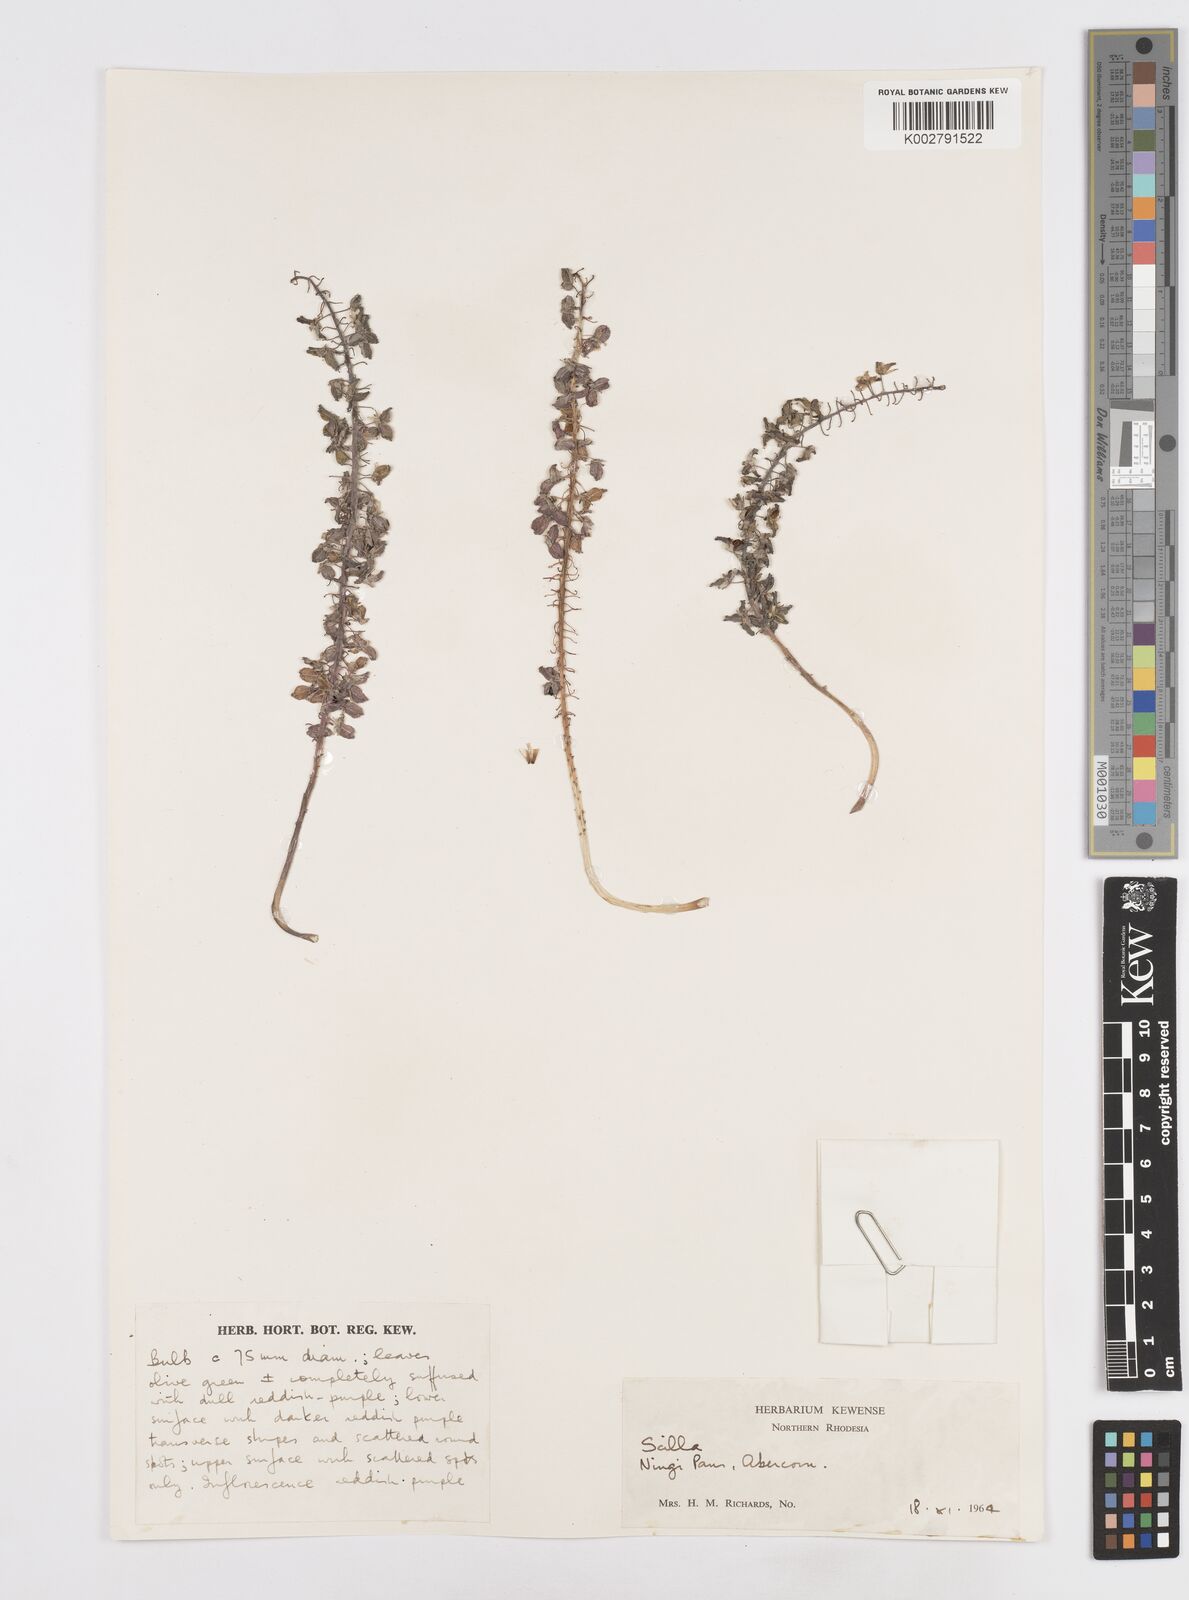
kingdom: Plantae
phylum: Tracheophyta
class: Liliopsida
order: Asparagales
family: Asparagaceae
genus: Scilla
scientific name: Scilla
